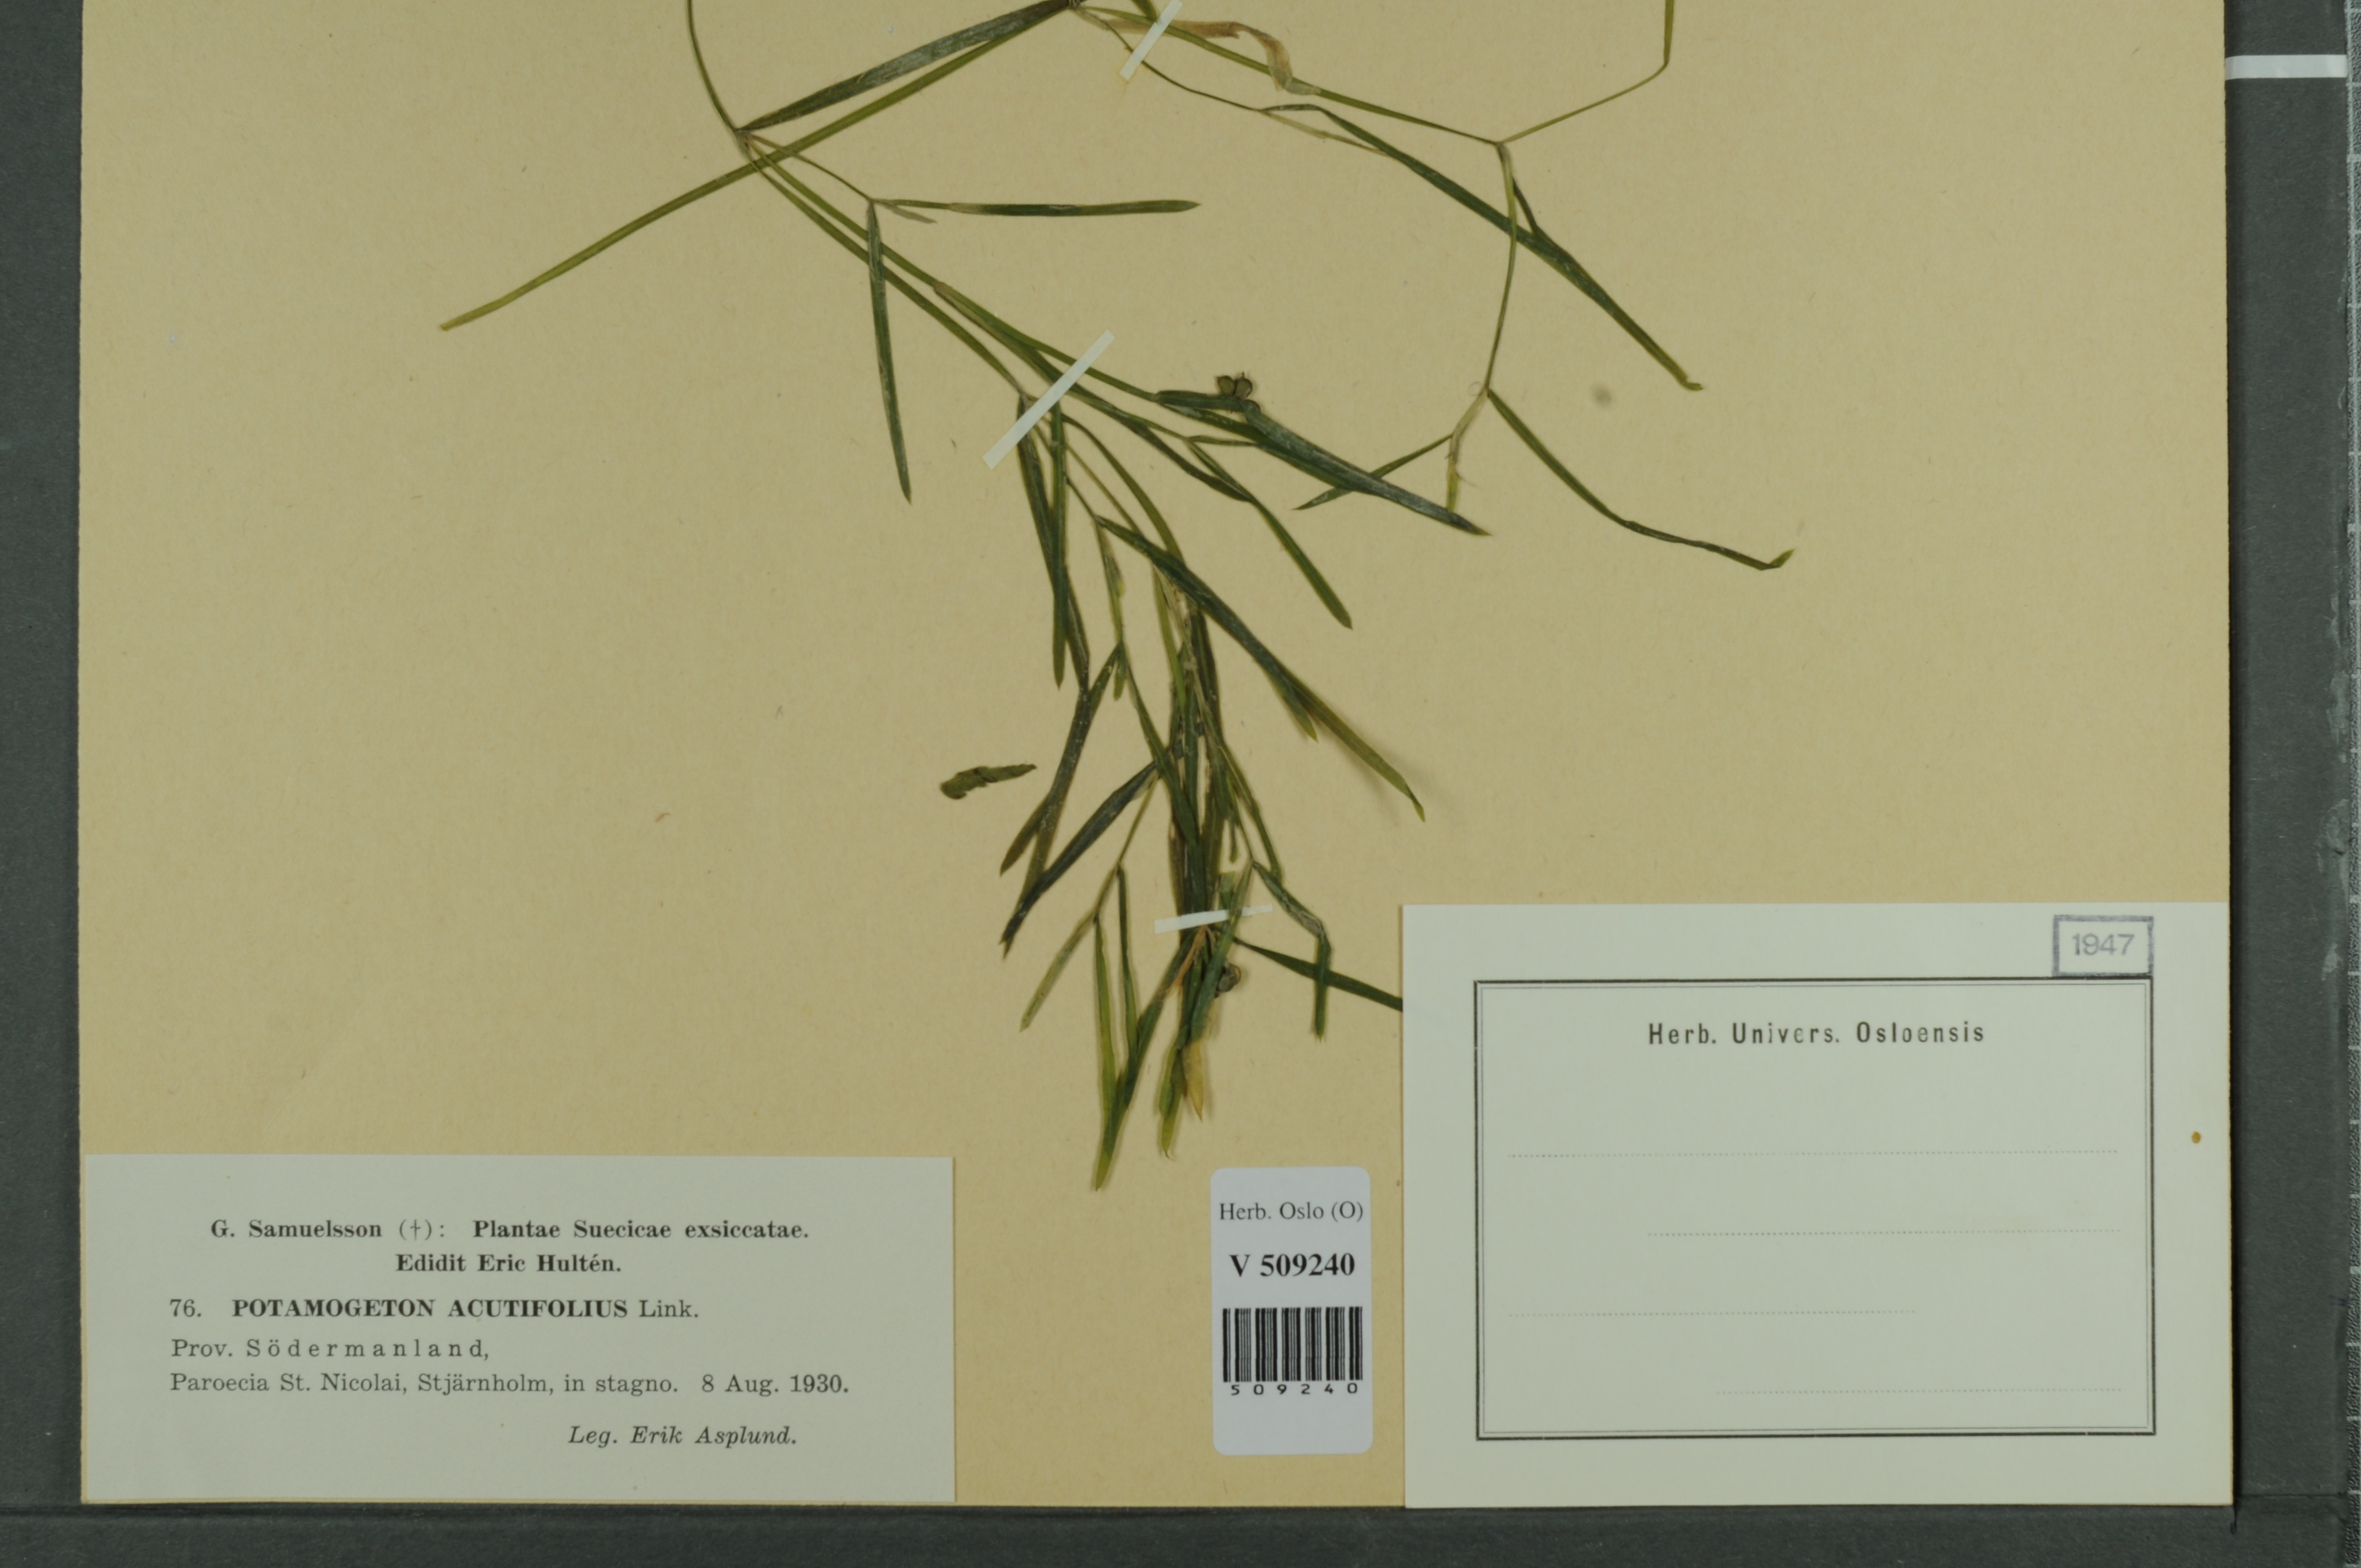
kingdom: Plantae
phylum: Tracheophyta
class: Liliopsida
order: Alismatales
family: Potamogetonaceae
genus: Potamogeton
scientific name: Potamogeton acutifolius
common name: Sharp-leaved pondweed
